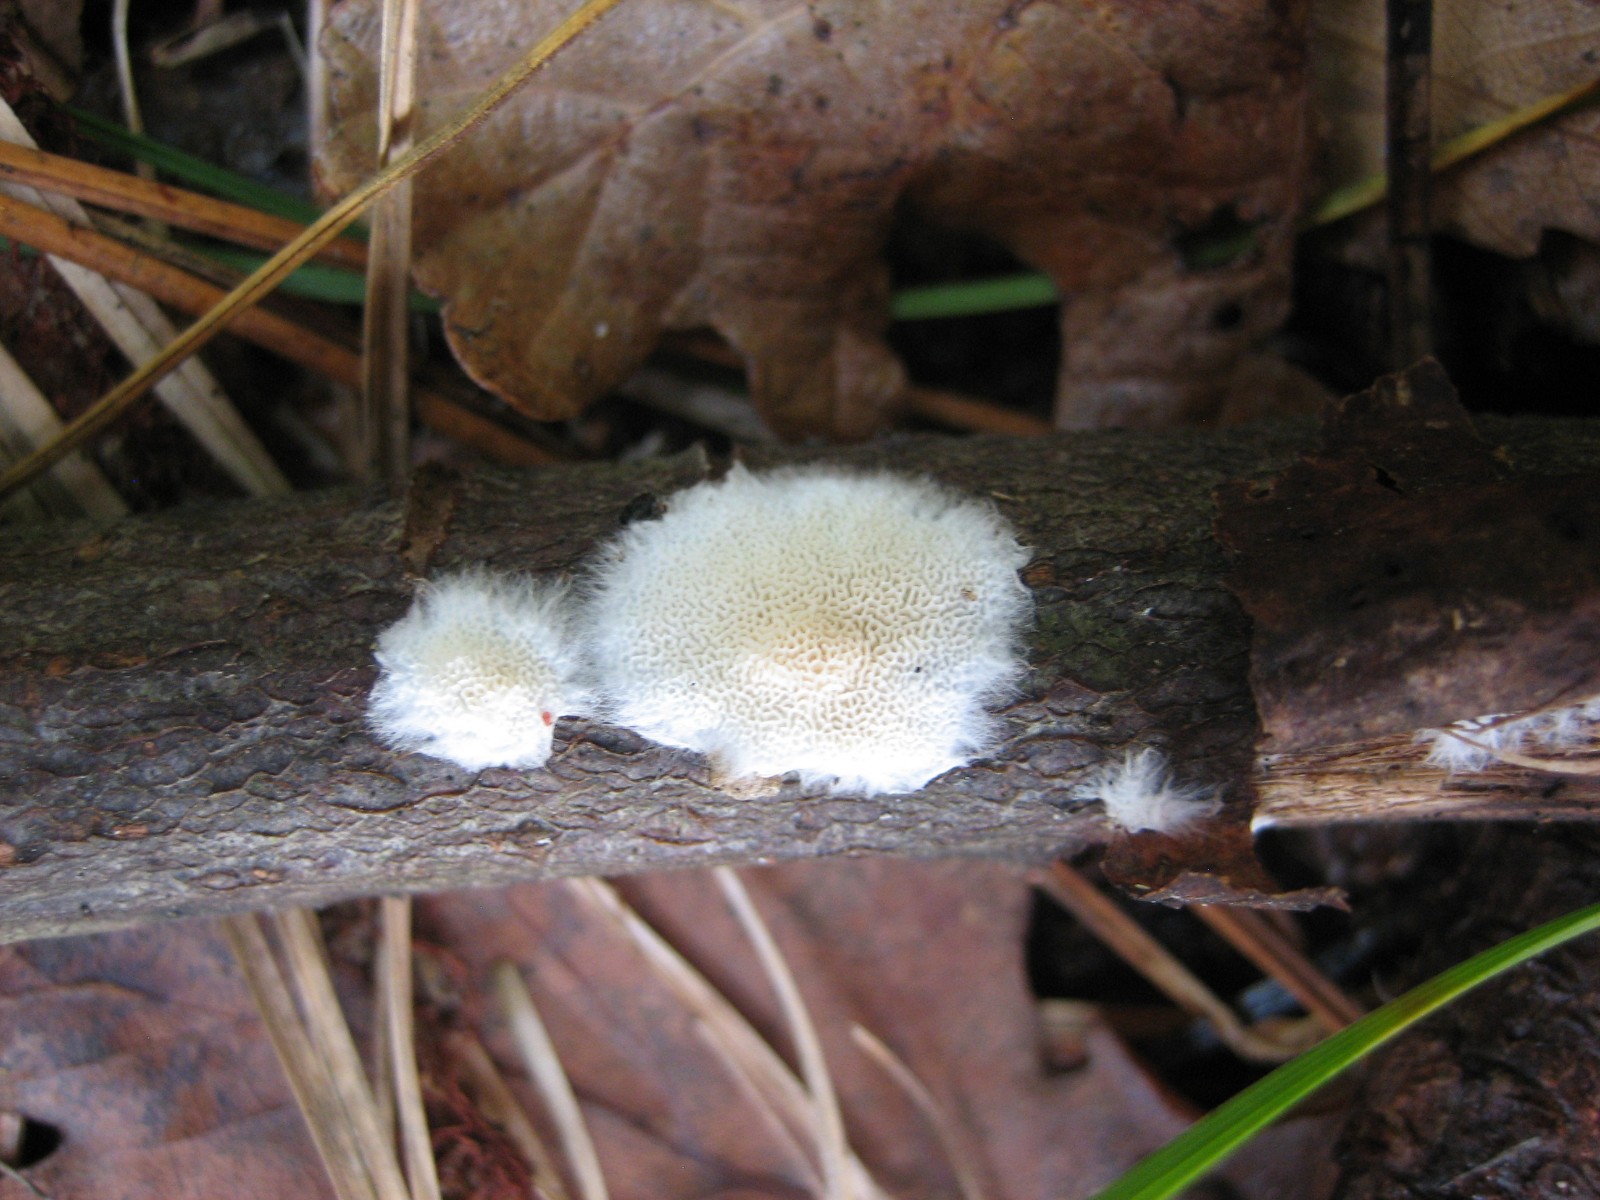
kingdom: Fungi
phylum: Basidiomycota
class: Agaricomycetes
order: Hymenochaetales
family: Schizoporaceae
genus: Xylodon
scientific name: Xylodon subtropicus
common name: labyrint-tandsvamp
